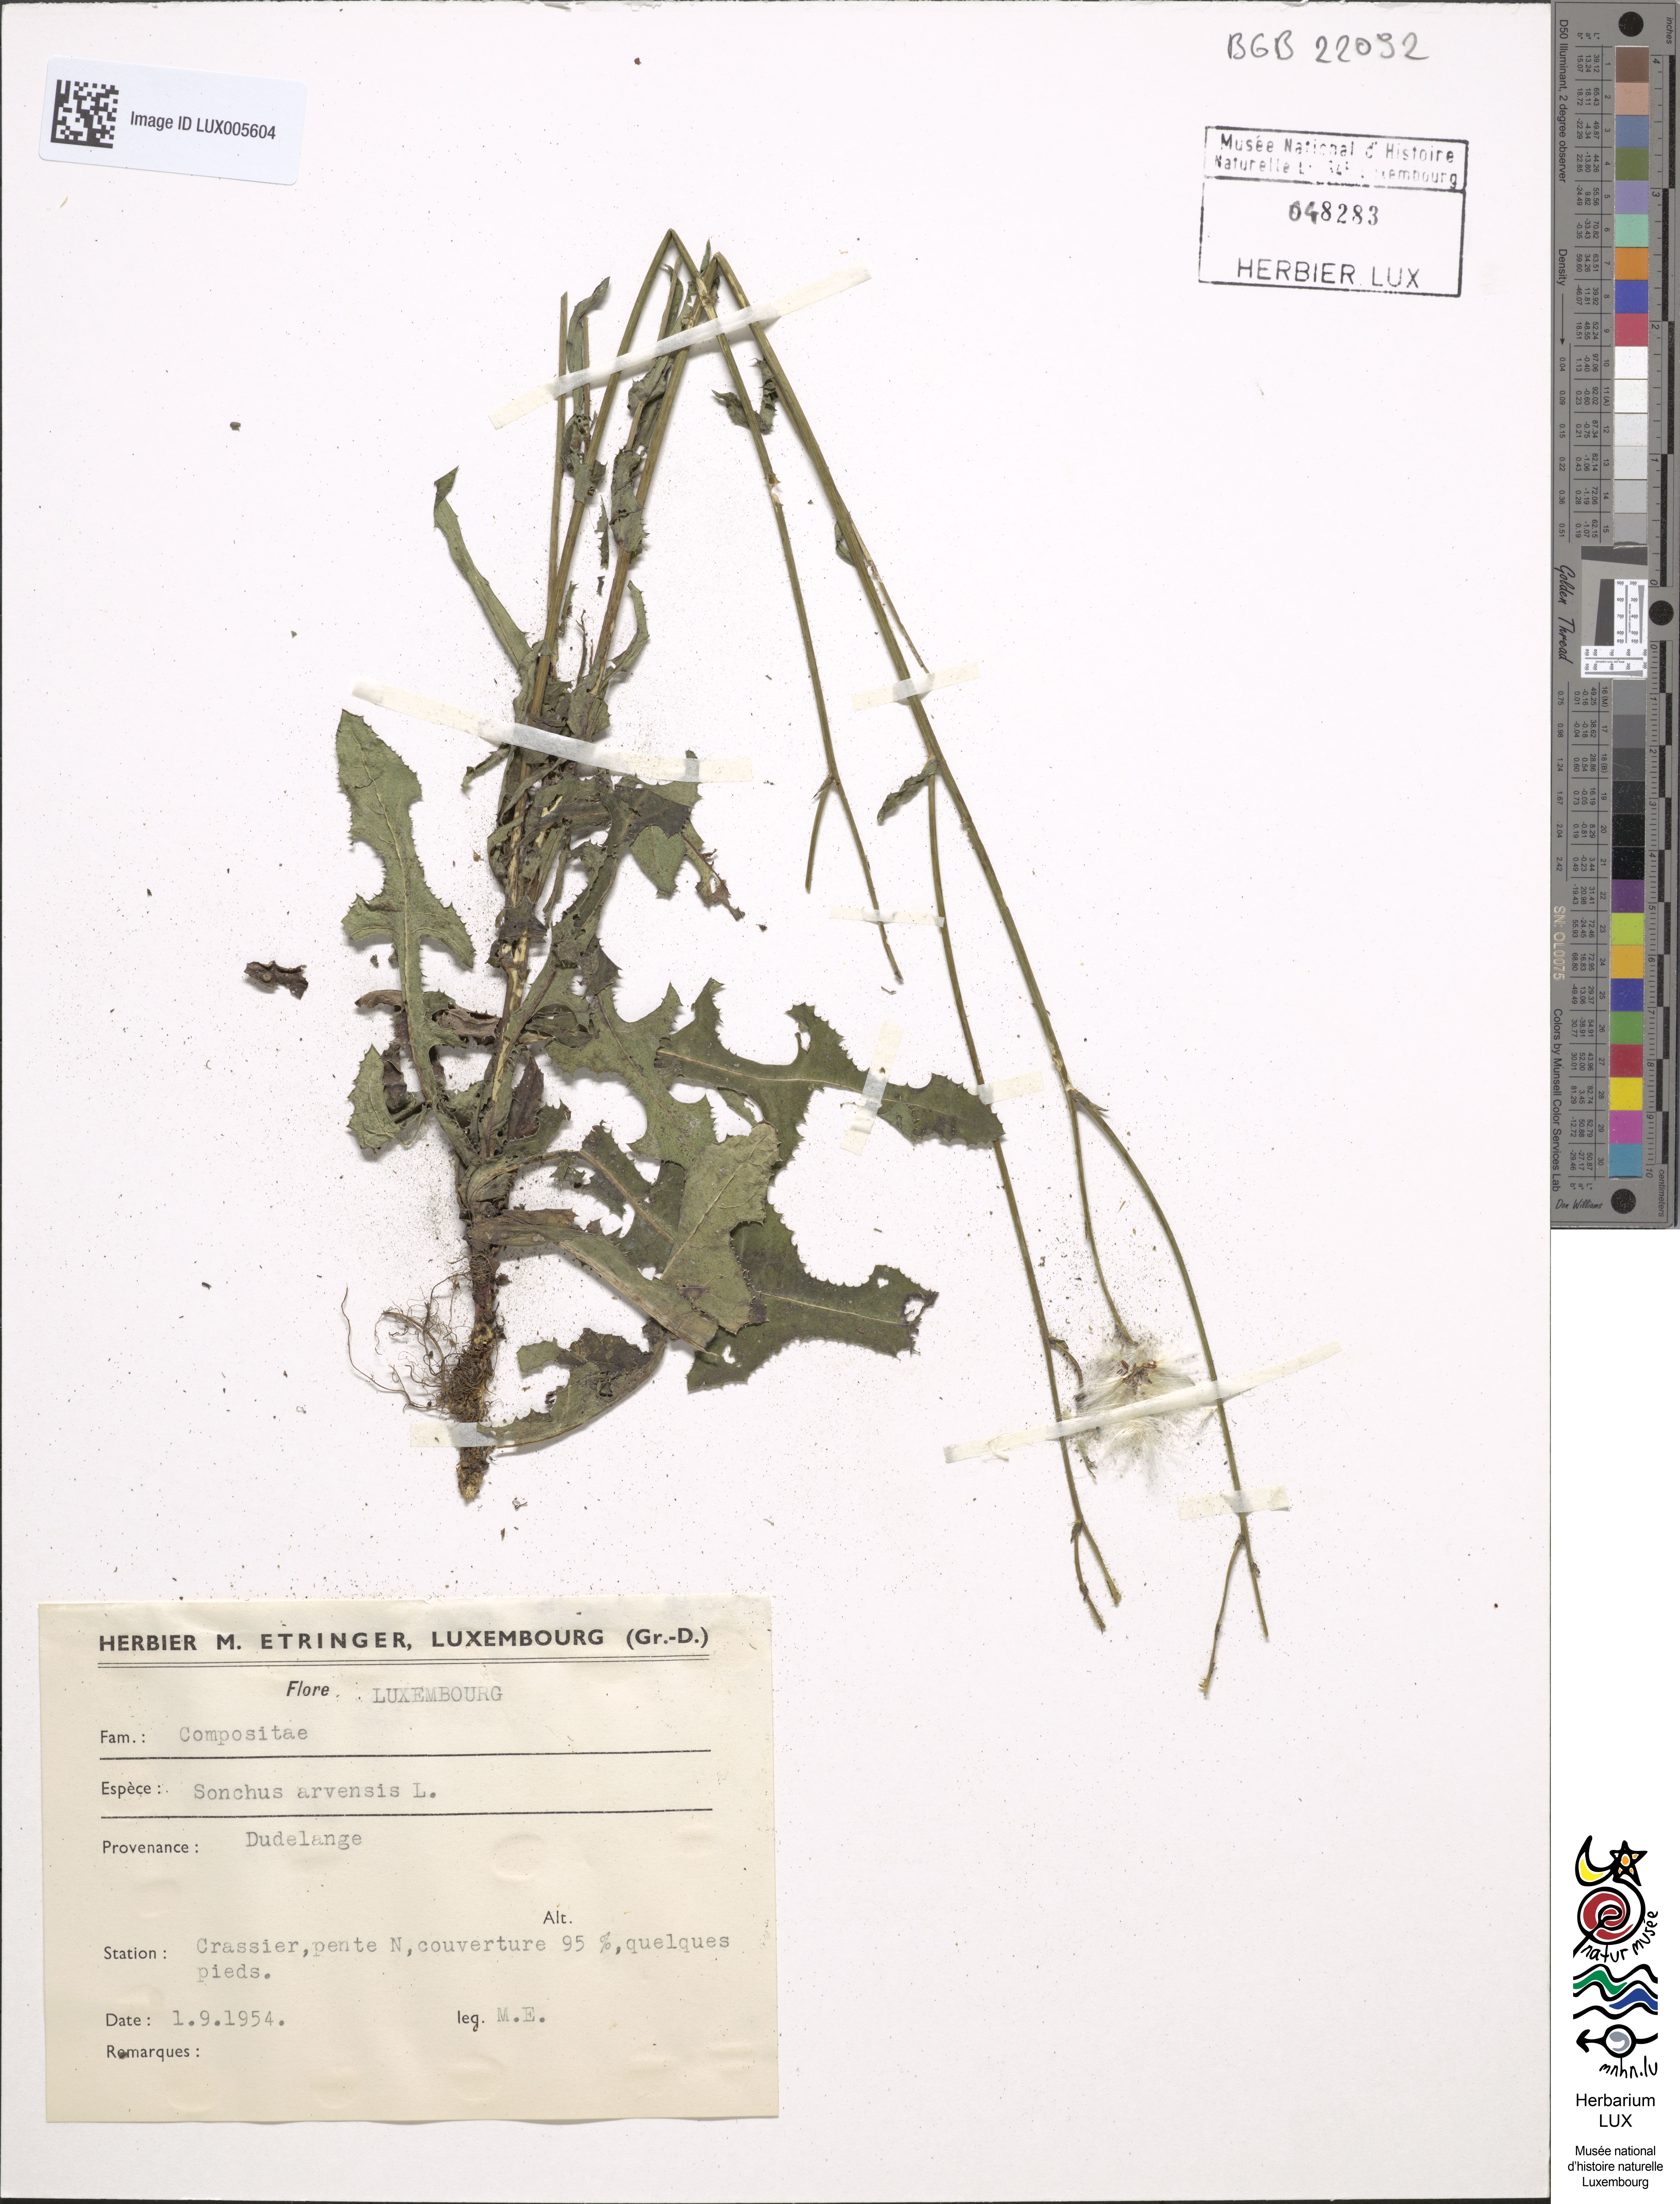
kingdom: Plantae
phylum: Tracheophyta
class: Magnoliopsida
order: Asterales
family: Asteraceae
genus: Sonchus
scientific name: Sonchus arvensis
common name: Perennial sow-thistle
